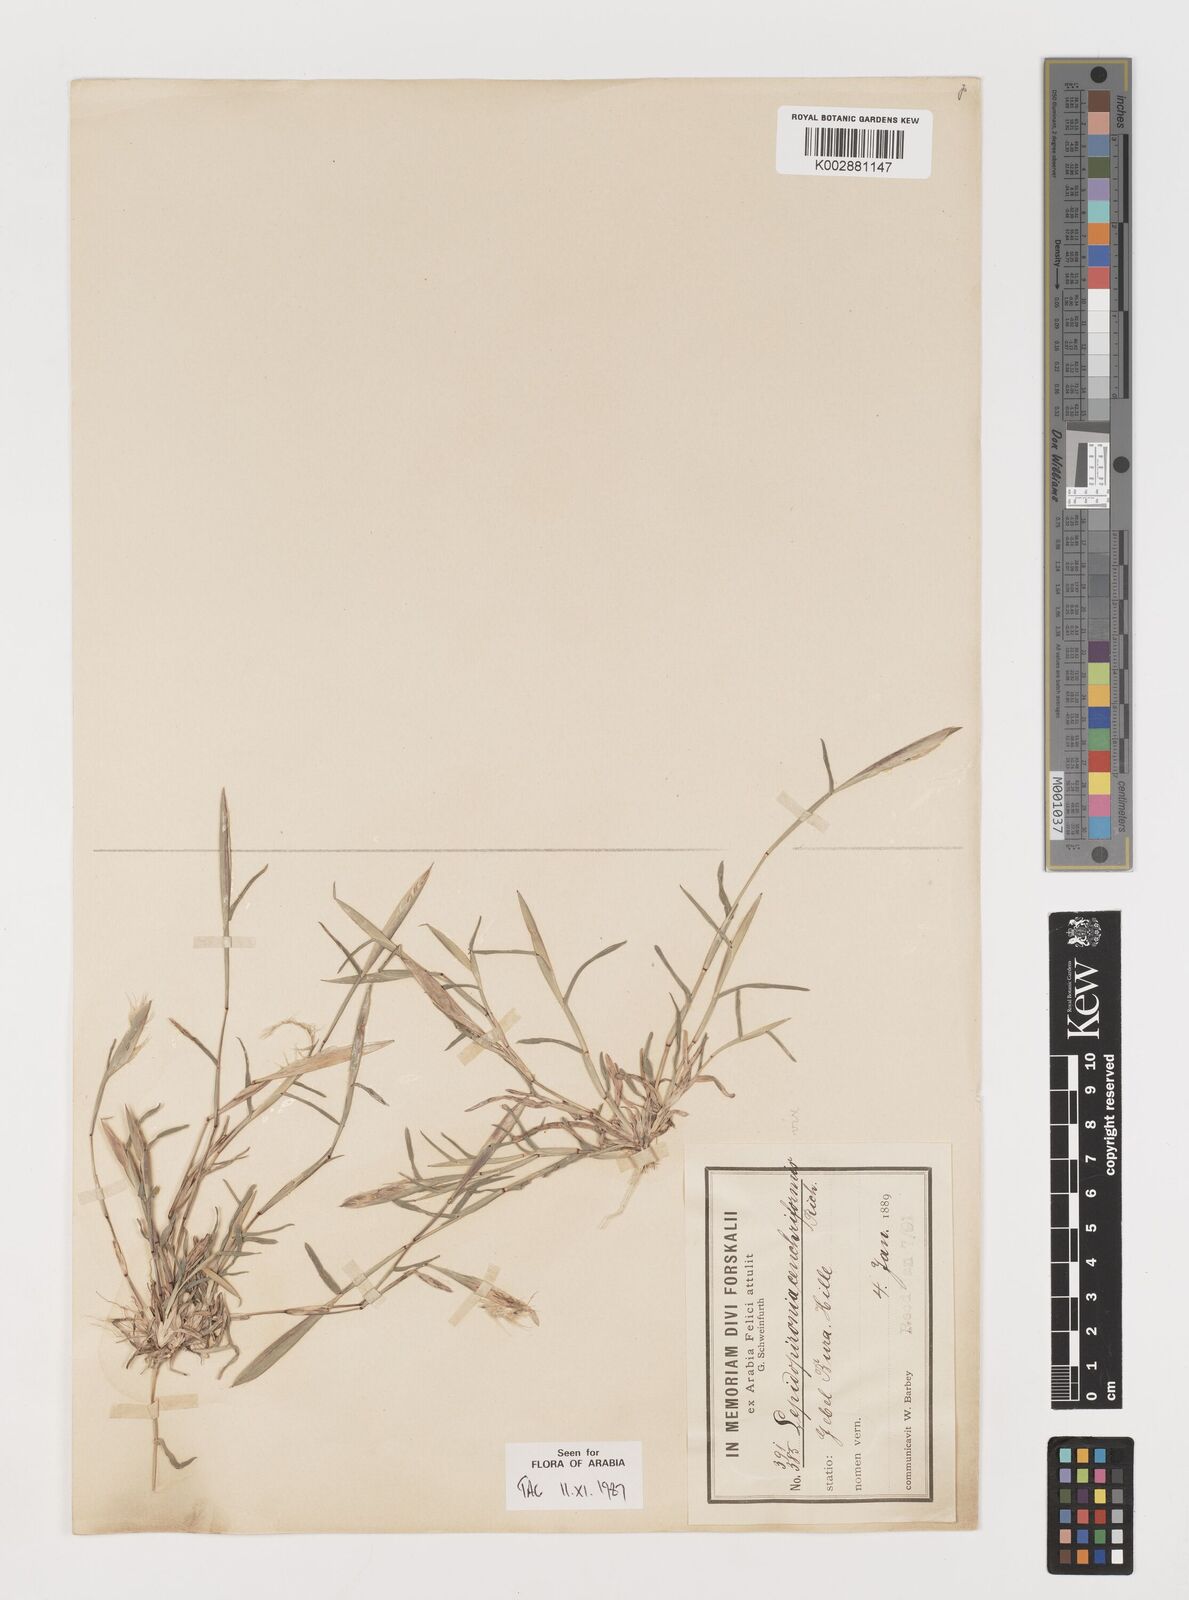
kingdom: Plantae
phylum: Tracheophyta
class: Liliopsida
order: Poales
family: Poaceae
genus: Tetrapogon
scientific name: Tetrapogon cenchriformis
